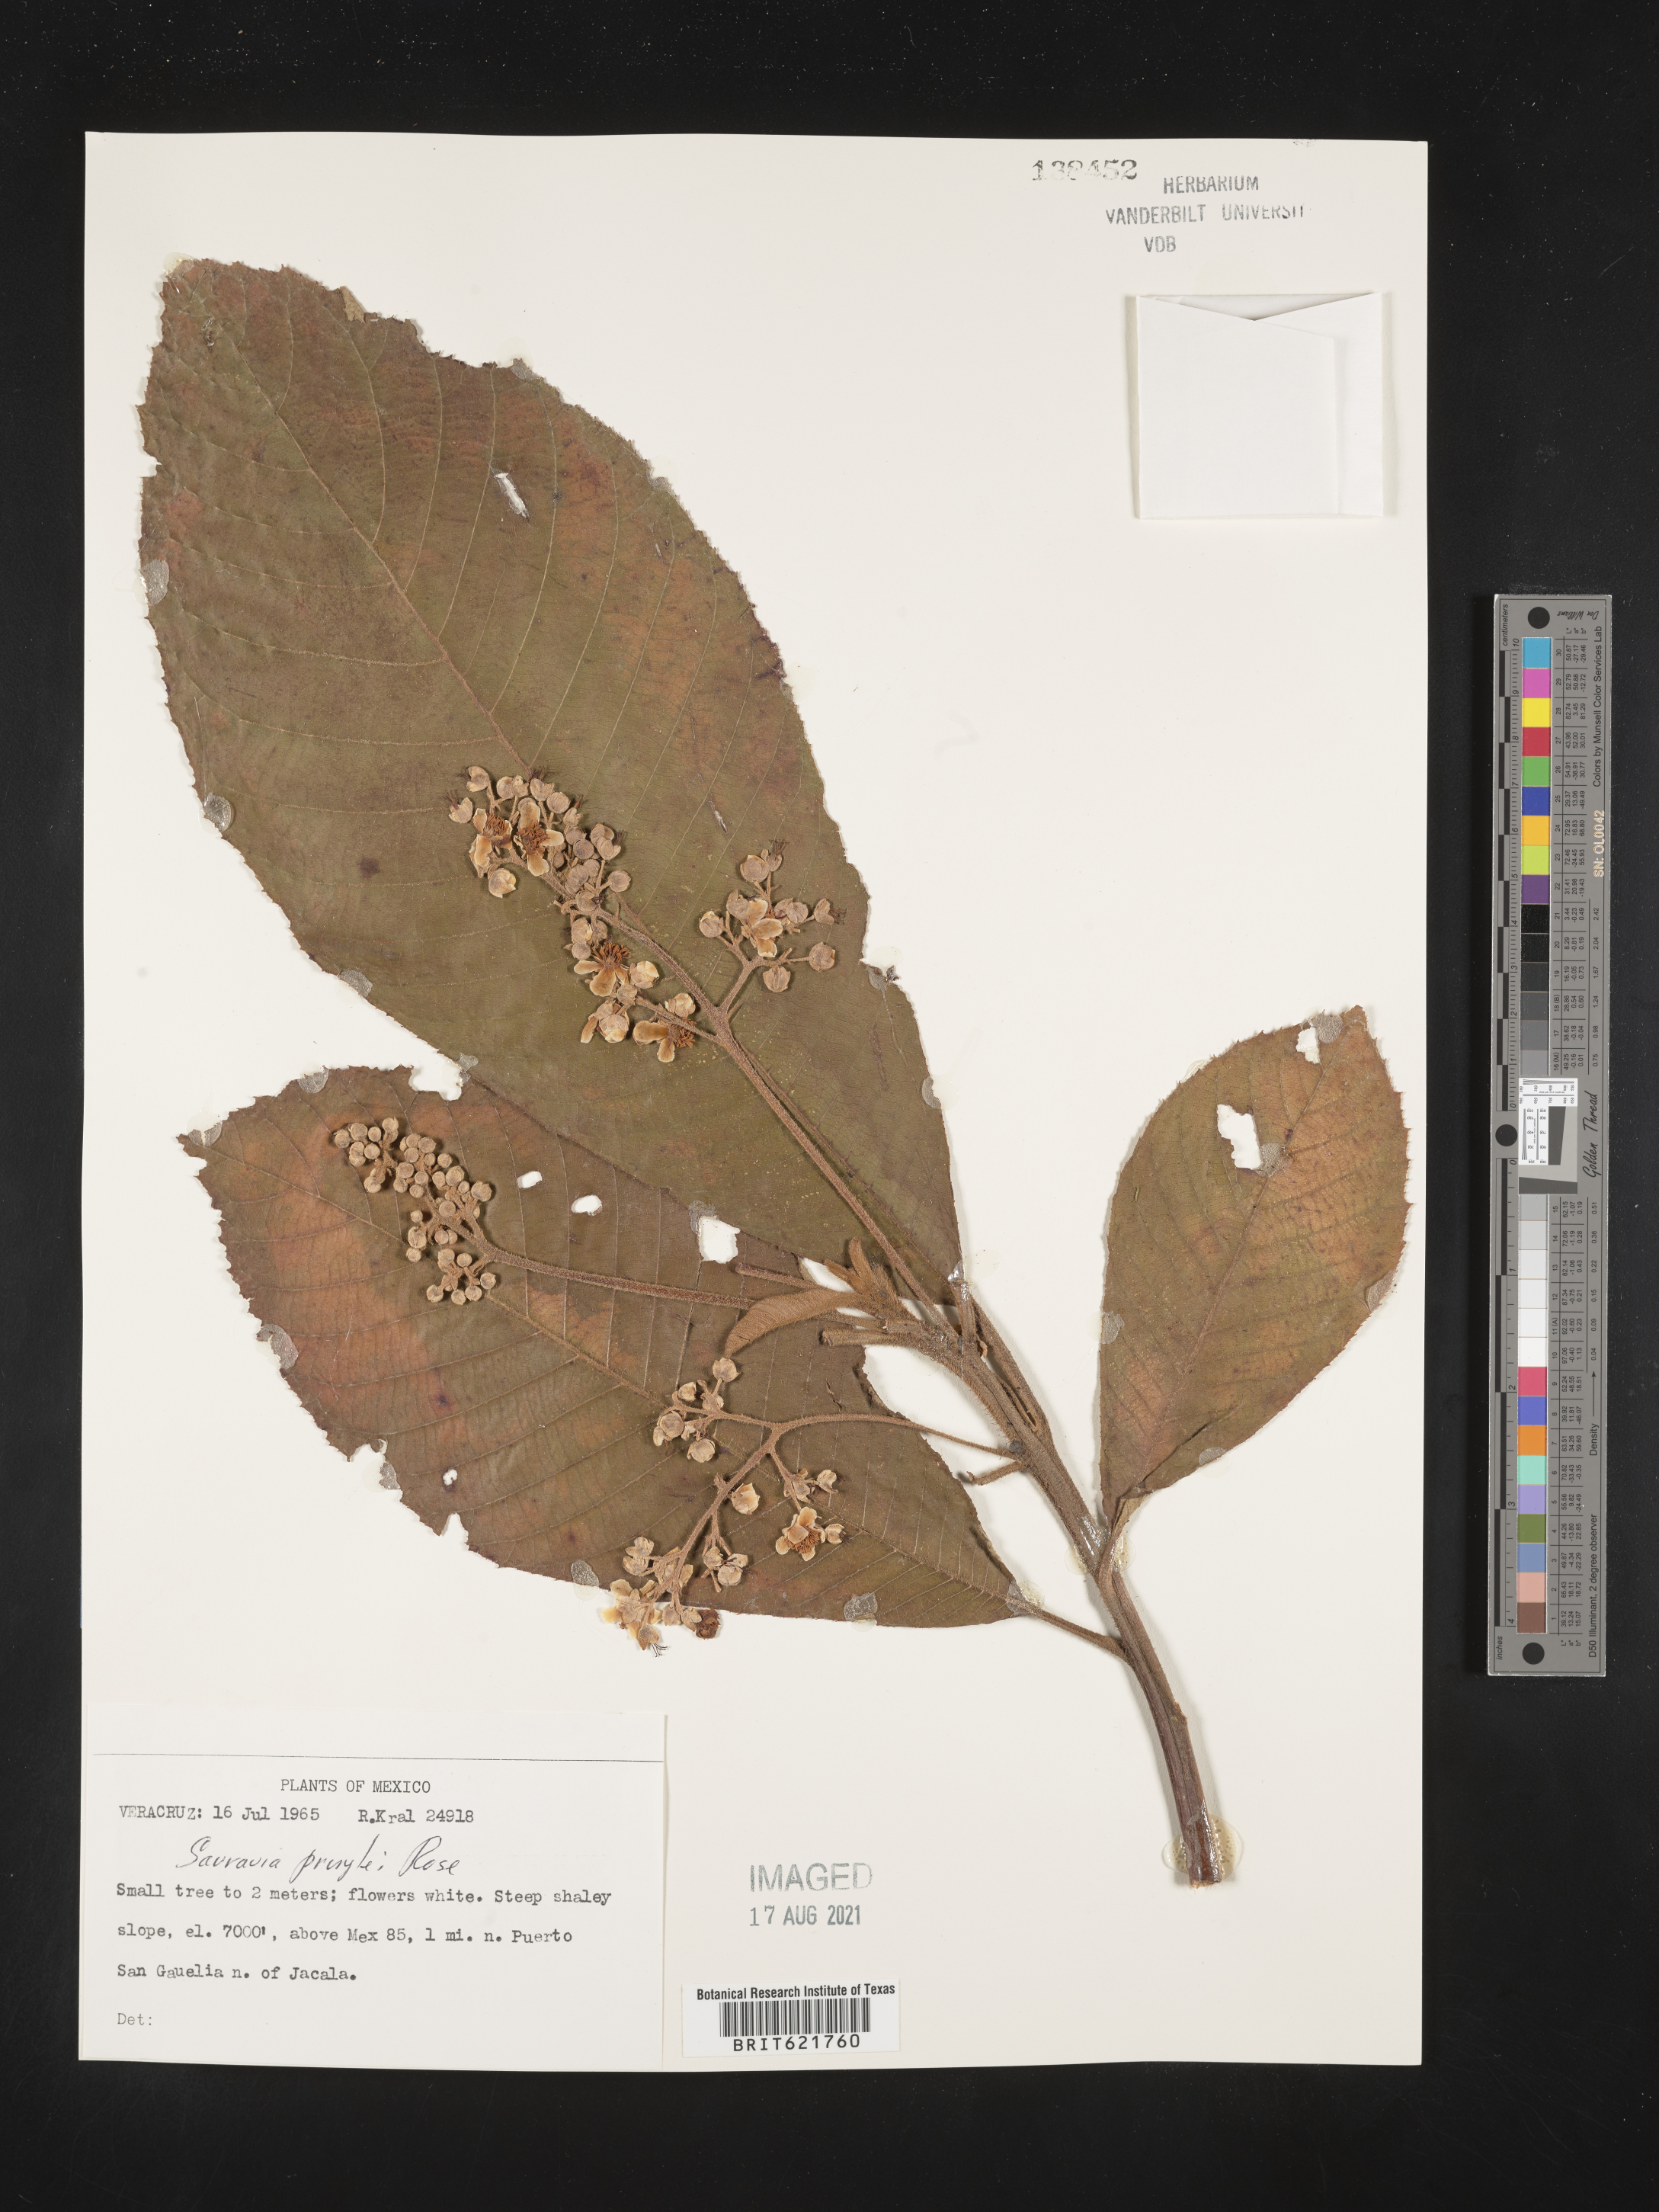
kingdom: Plantae
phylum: Tracheophyta
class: Magnoliopsida
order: Ericales
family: Actinidiaceae
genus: Saurauia
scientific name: Saurauia
